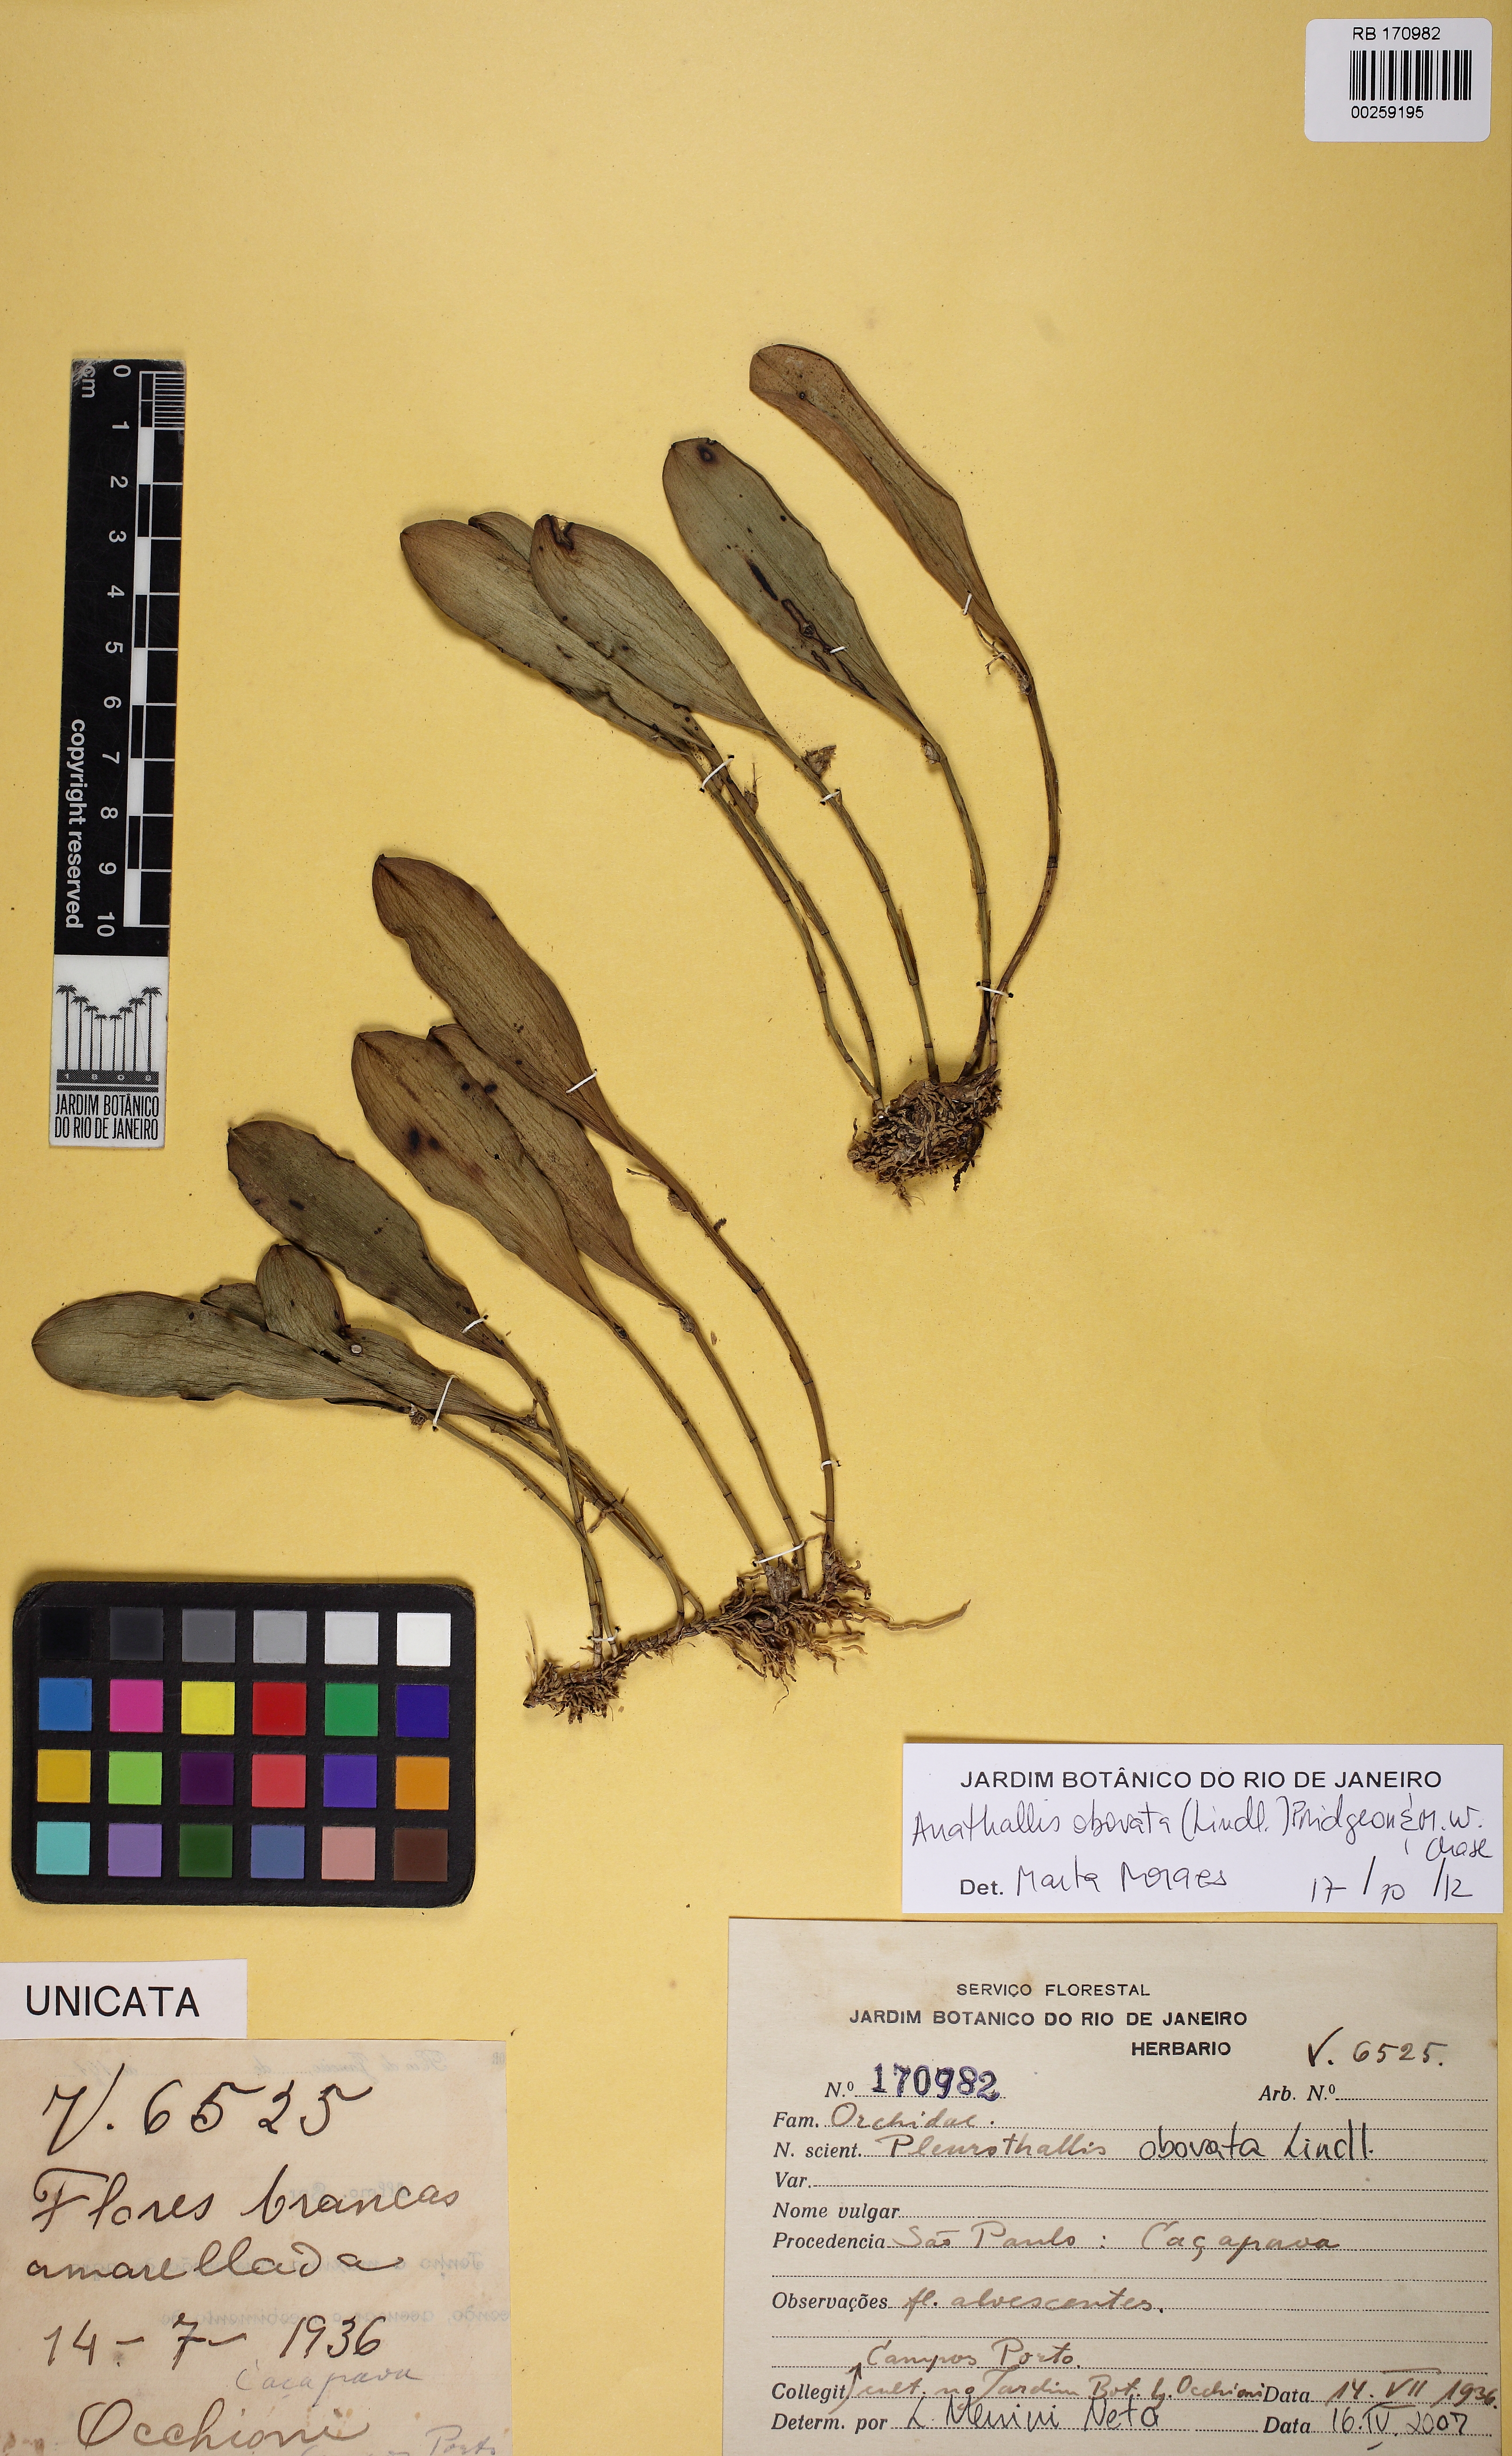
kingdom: Plantae
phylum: Tracheophyta
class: Liliopsida
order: Asparagales
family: Orchidaceae
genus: Anathallis
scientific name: Anathallis obovata
